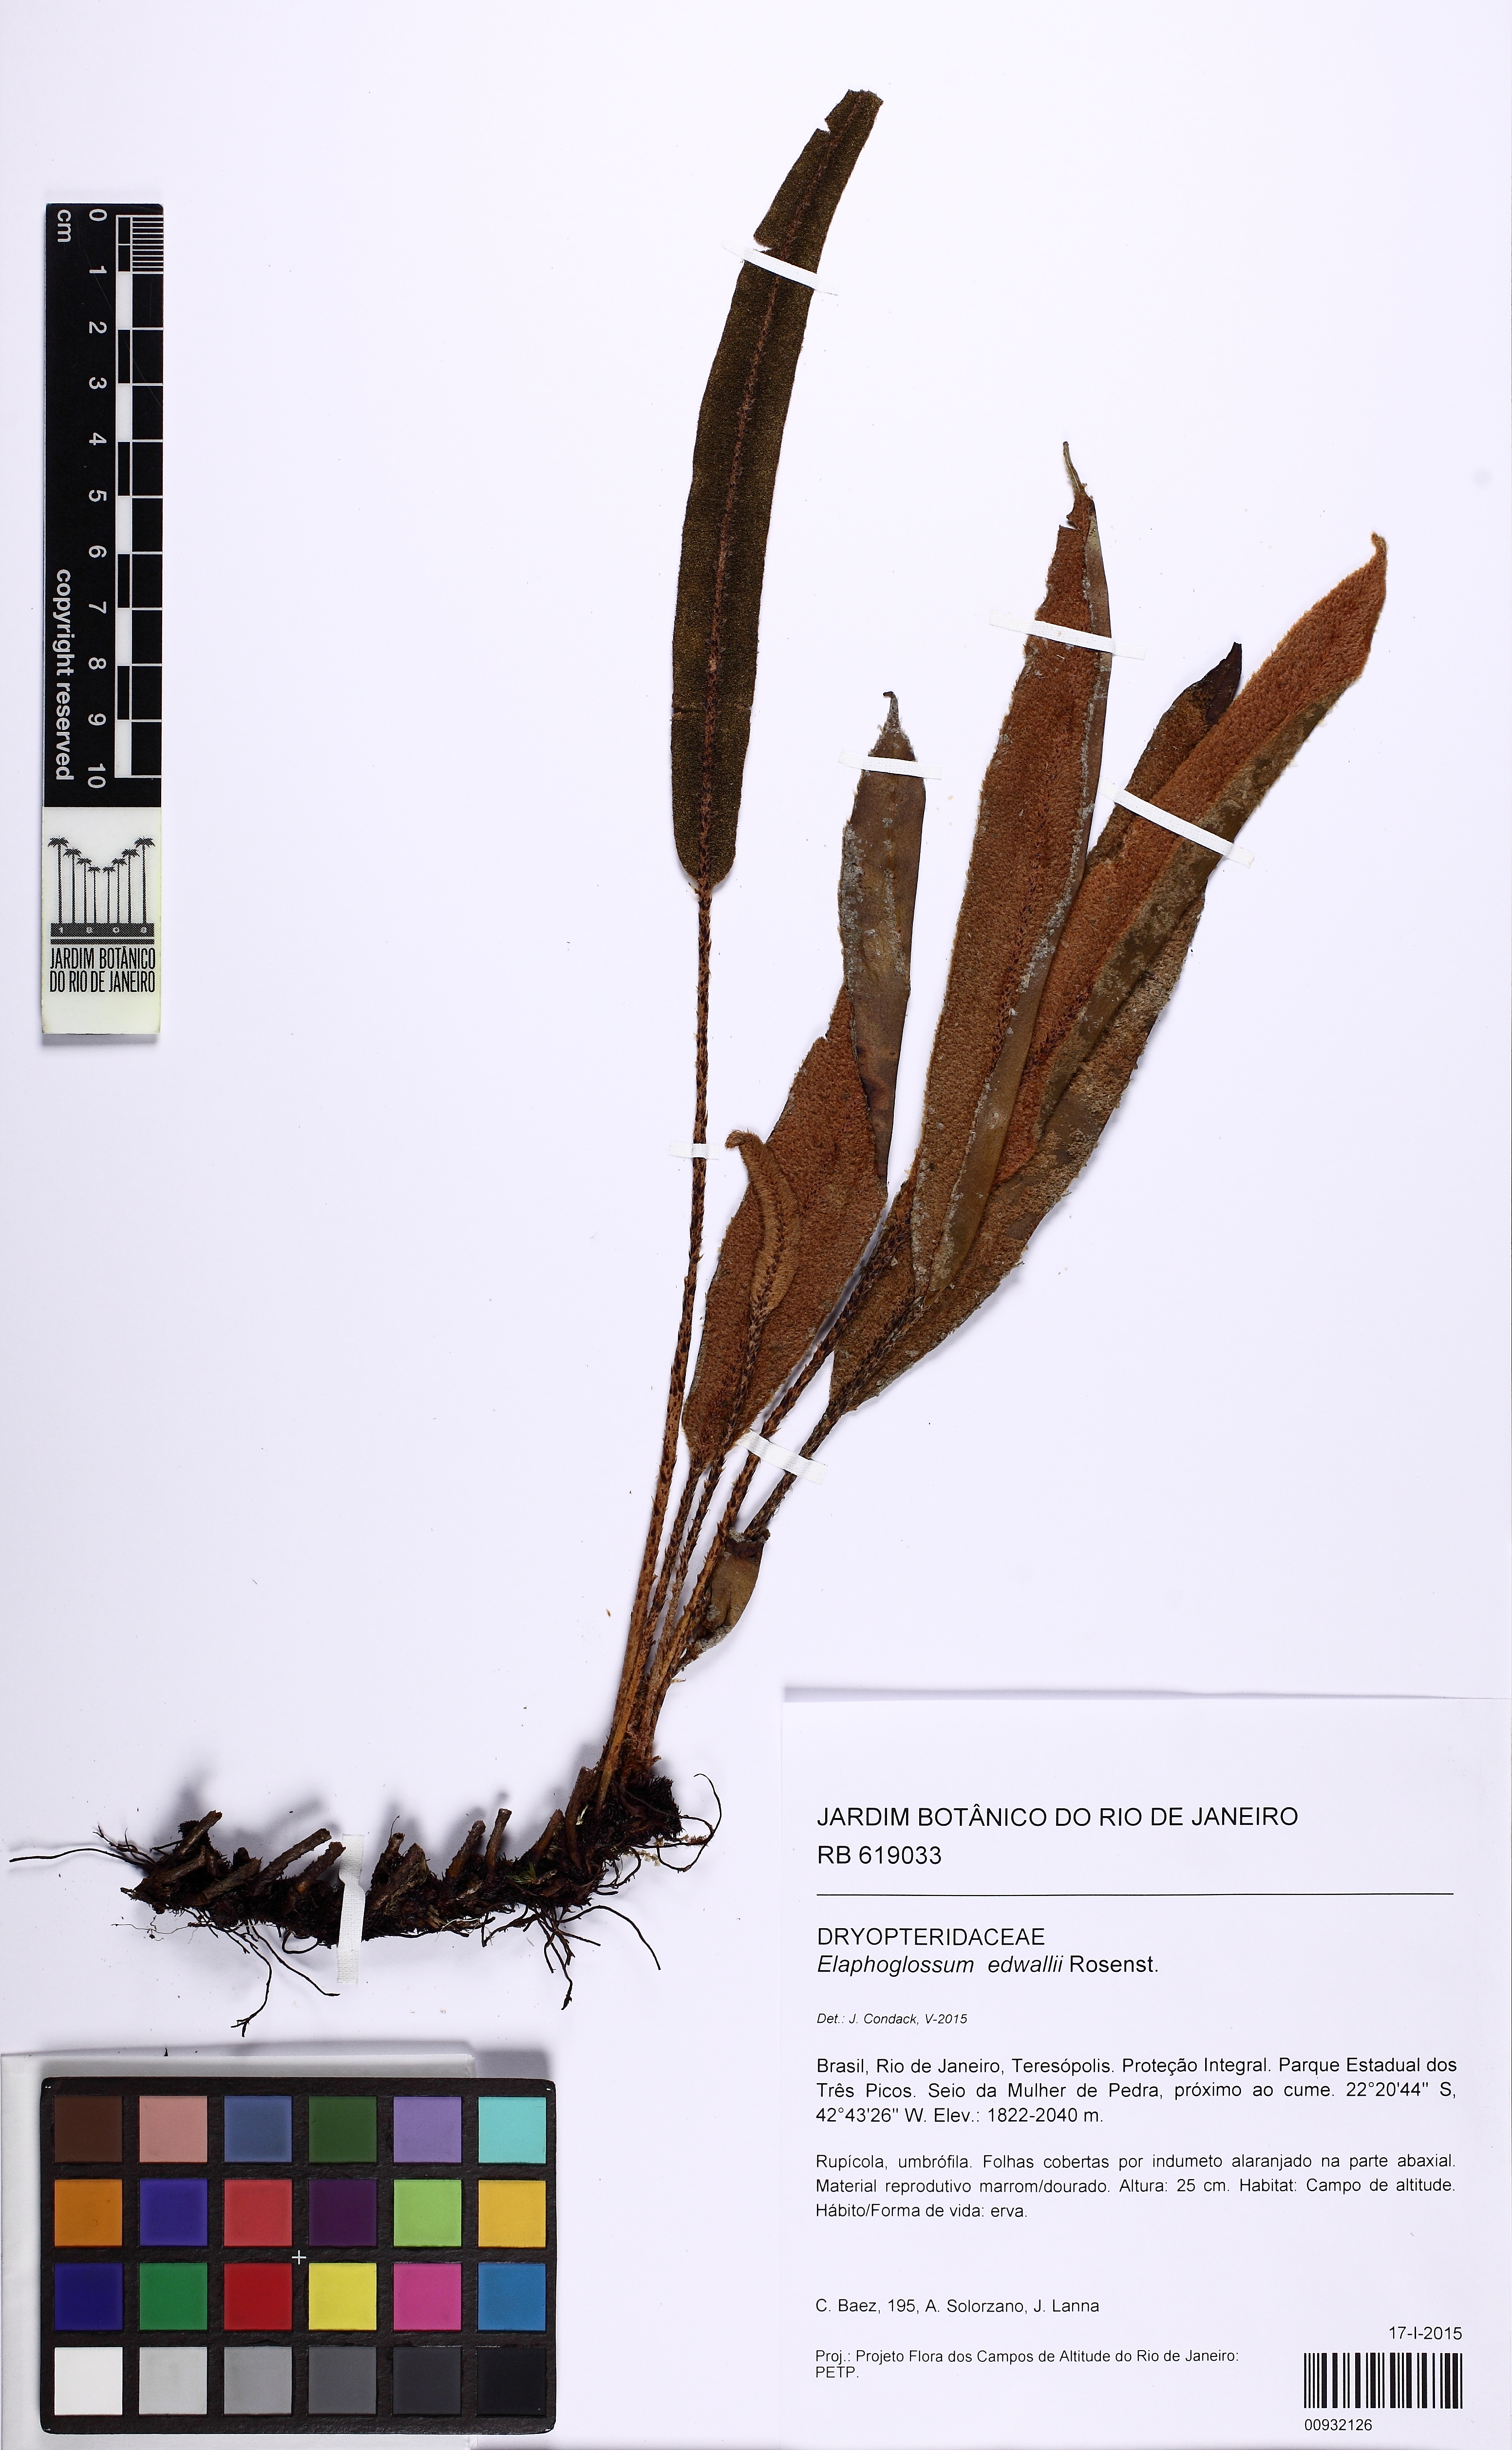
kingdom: Plantae
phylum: Tracheophyta
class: Polypodiopsida
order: Polypodiales
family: Dryopteridaceae
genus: Elaphoglossum
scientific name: Elaphoglossum edwallii
